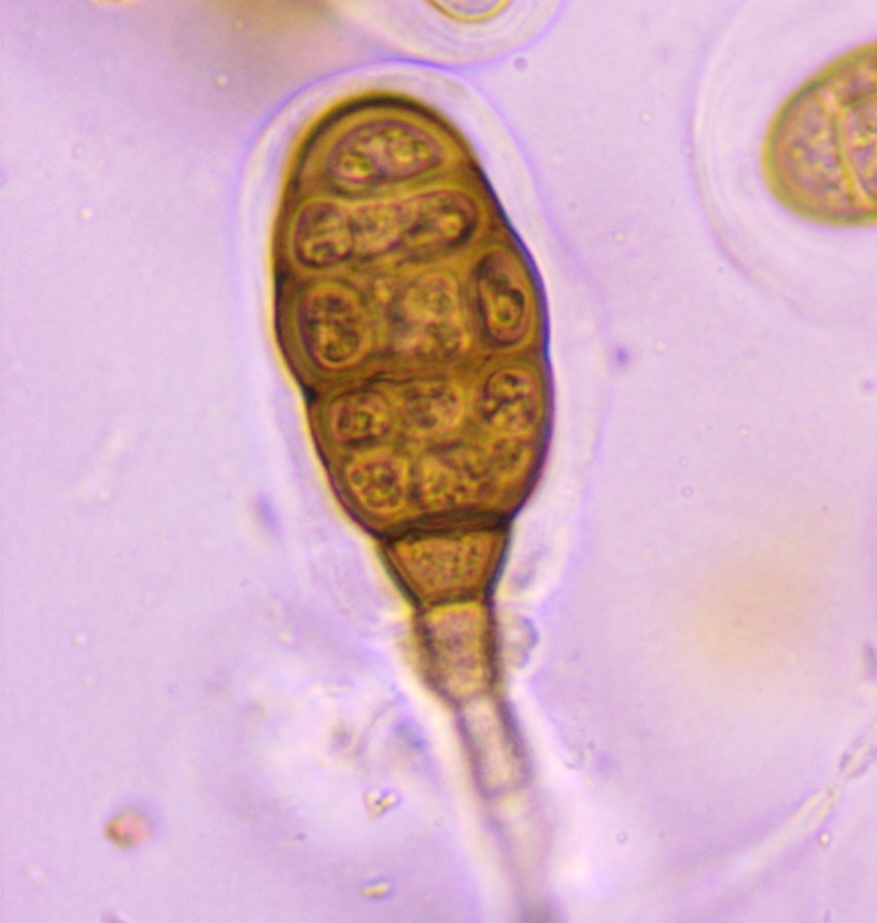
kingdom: Fungi
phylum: Ascomycota
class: Dothideomycetes
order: Pleosporales
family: Pleomassariaceae
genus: Splanchnonema
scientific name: Splanchnonema argus
